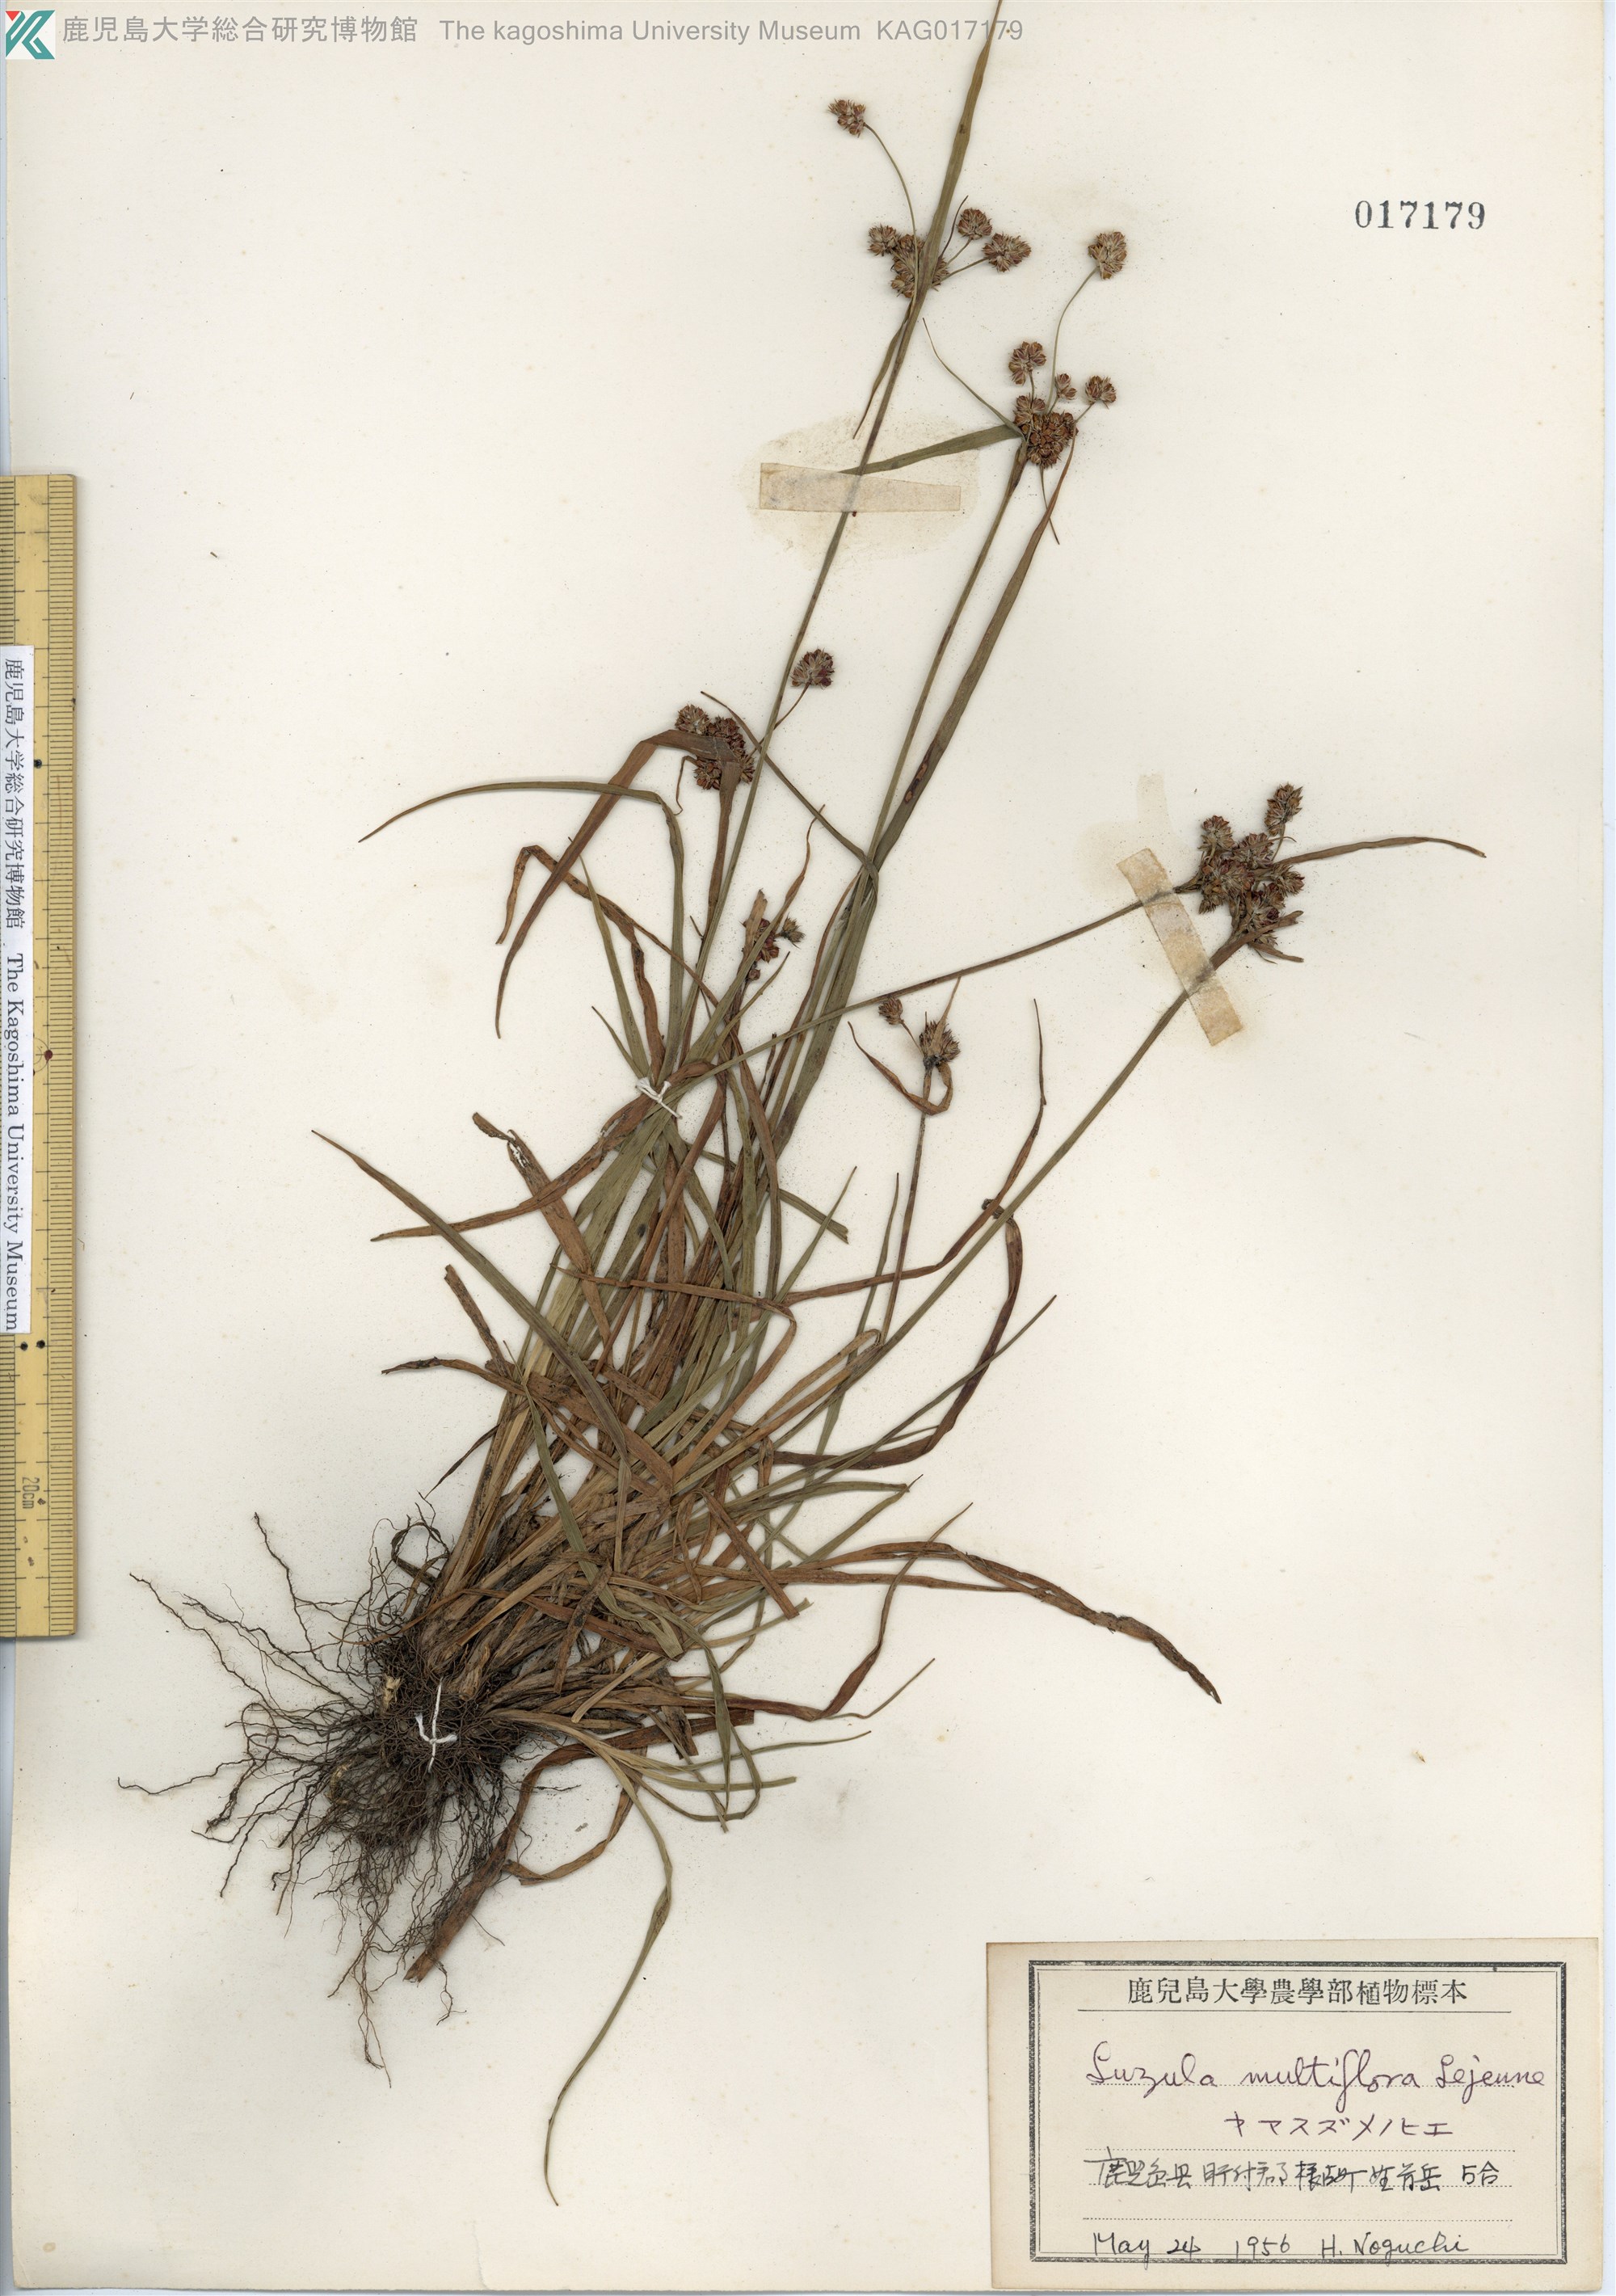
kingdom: Plantae
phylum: Tracheophyta
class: Liliopsida
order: Poales
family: Juncaceae
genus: Luzula
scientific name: Luzula multiflora
